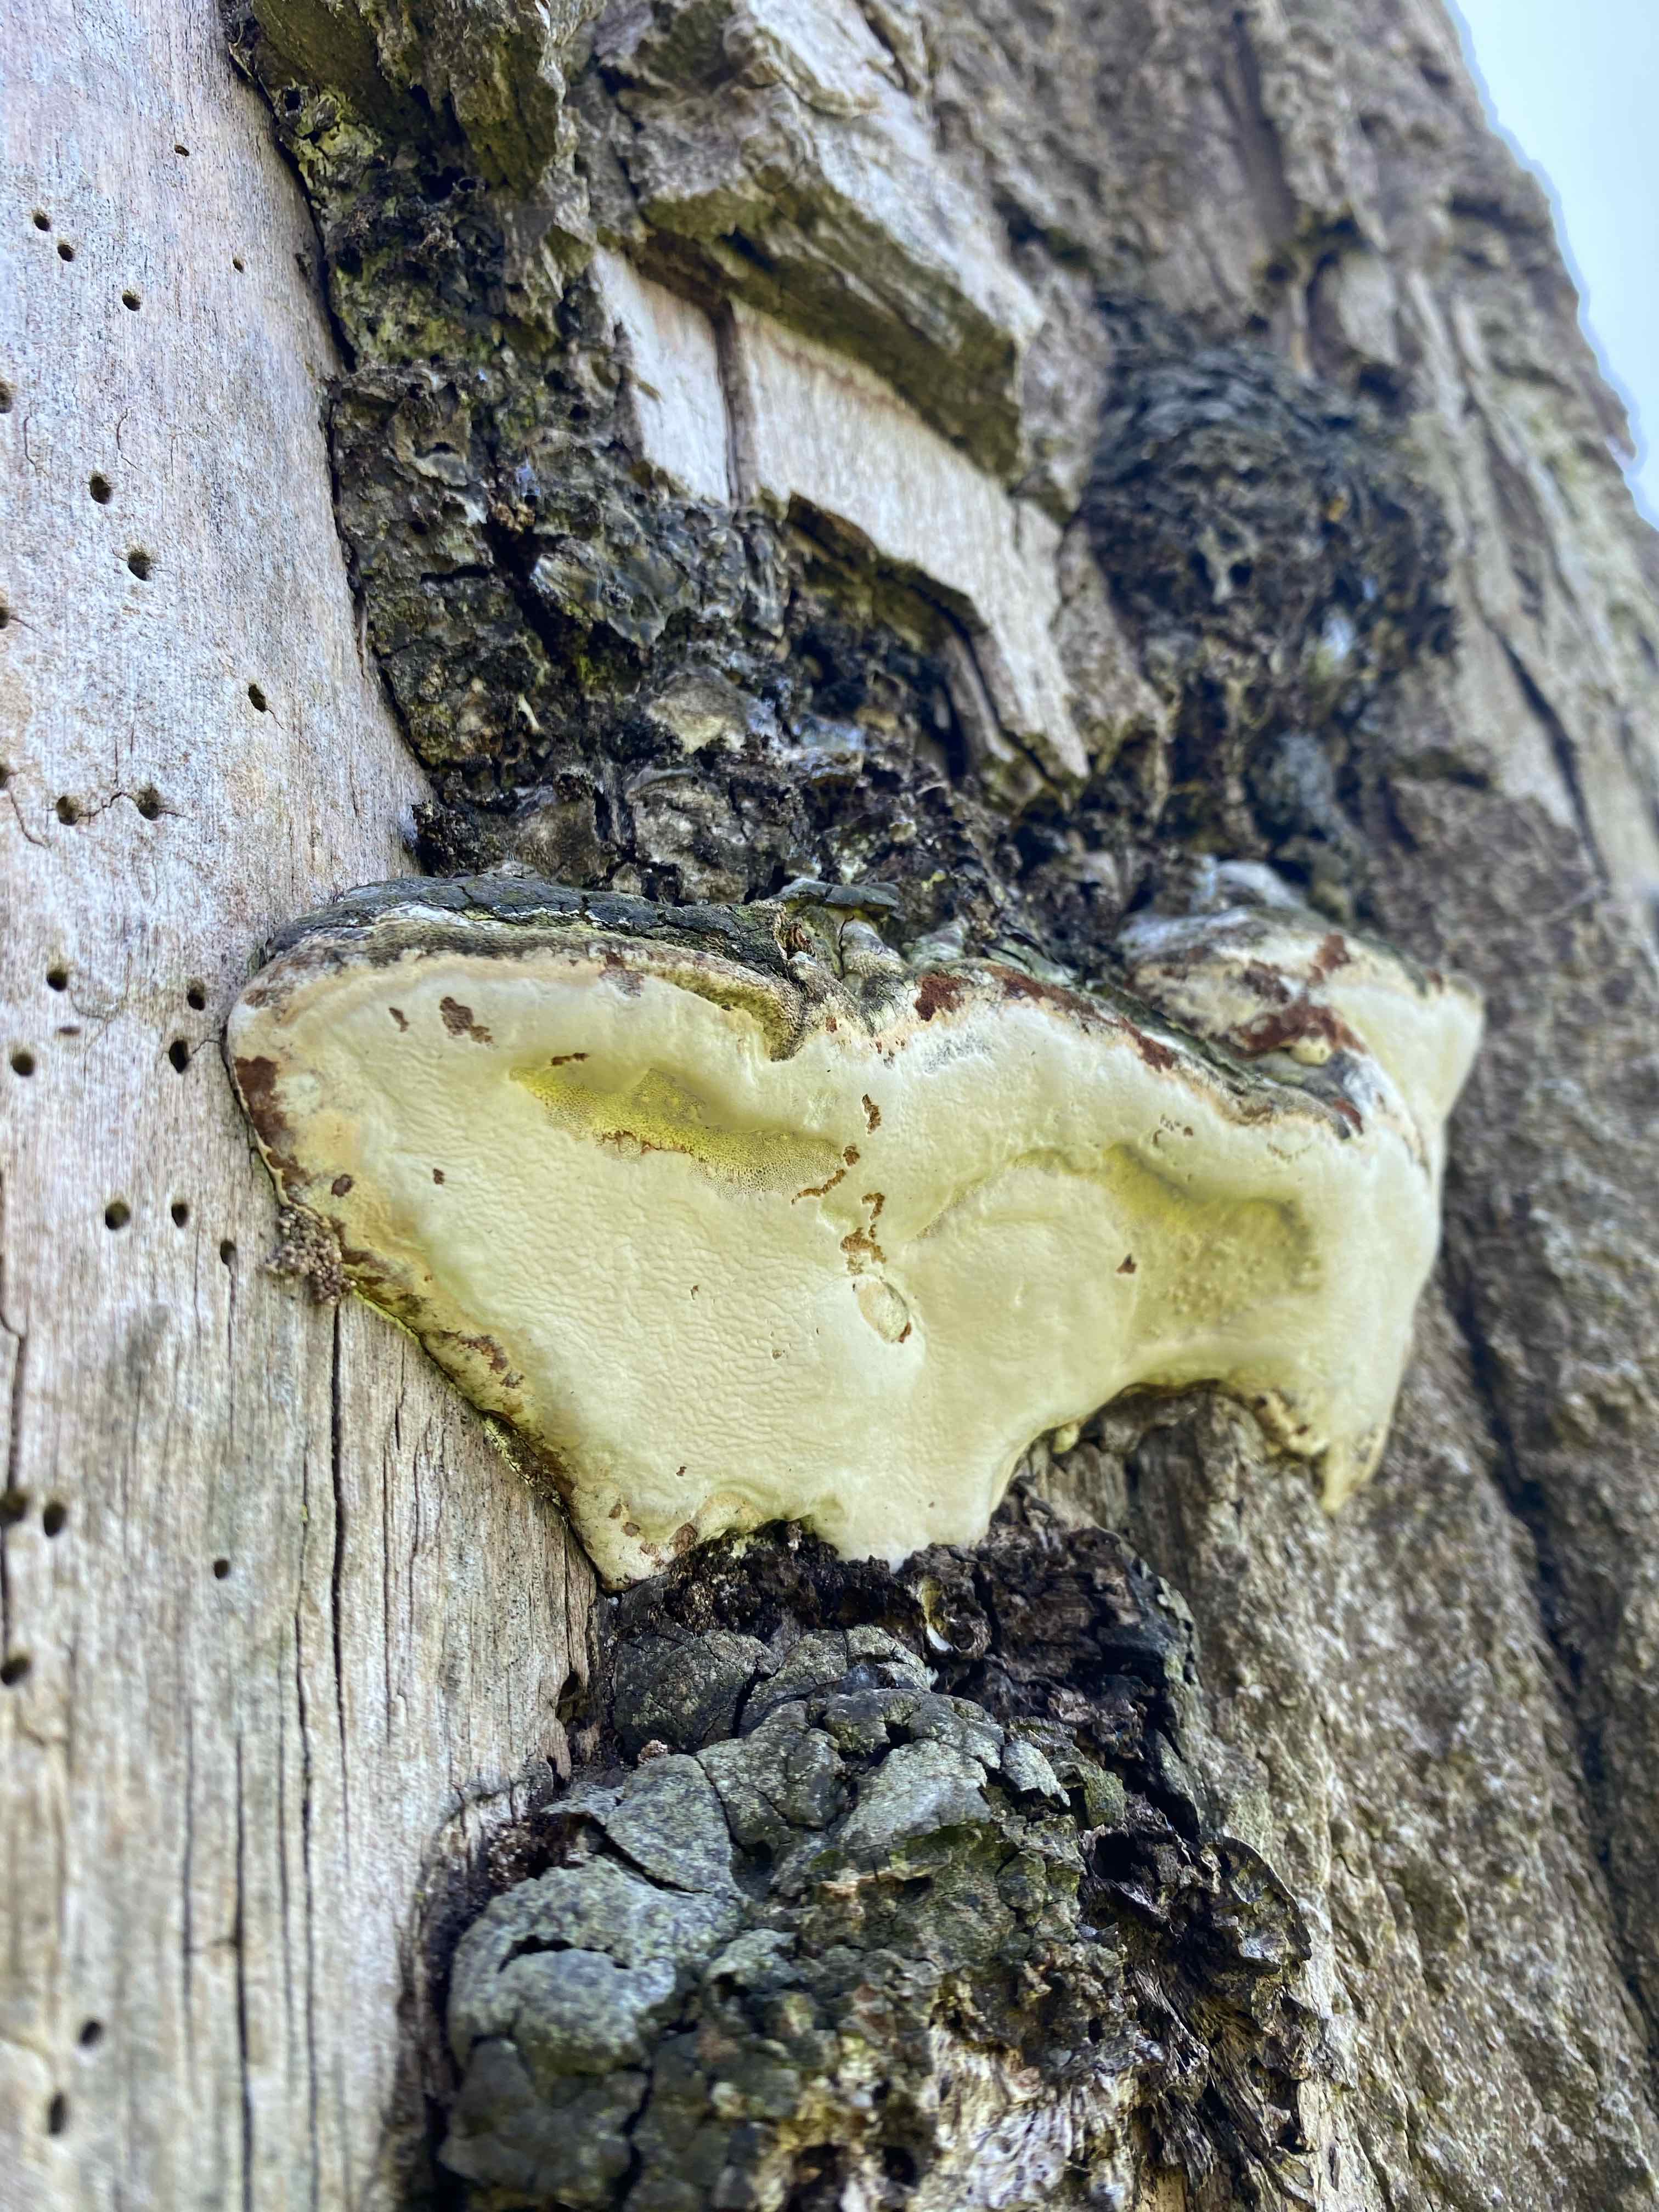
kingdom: Fungi
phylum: Basidiomycota
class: Agaricomycetes
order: Polyporales
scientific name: Polyporales
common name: poresvampordenen
